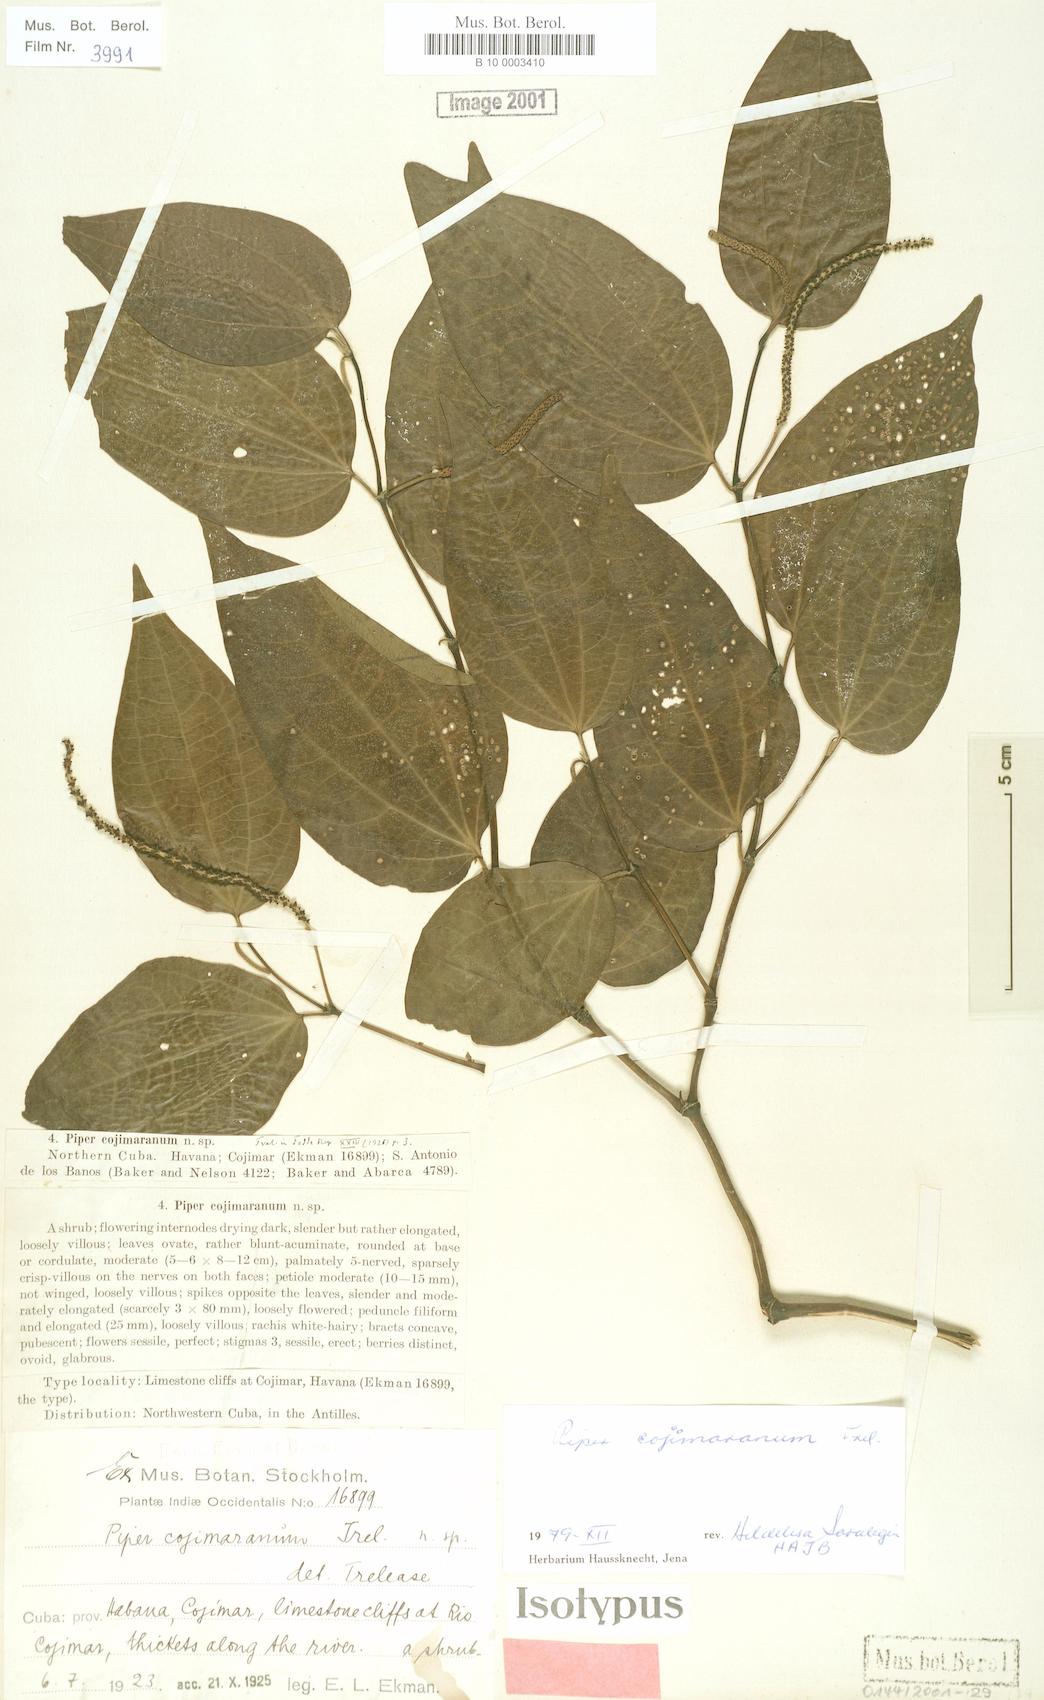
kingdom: Plantae
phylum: Tracheophyta
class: Magnoliopsida
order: Piperales
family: Piperaceae
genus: Piper
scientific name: Piper amalago
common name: Pepper-elder
